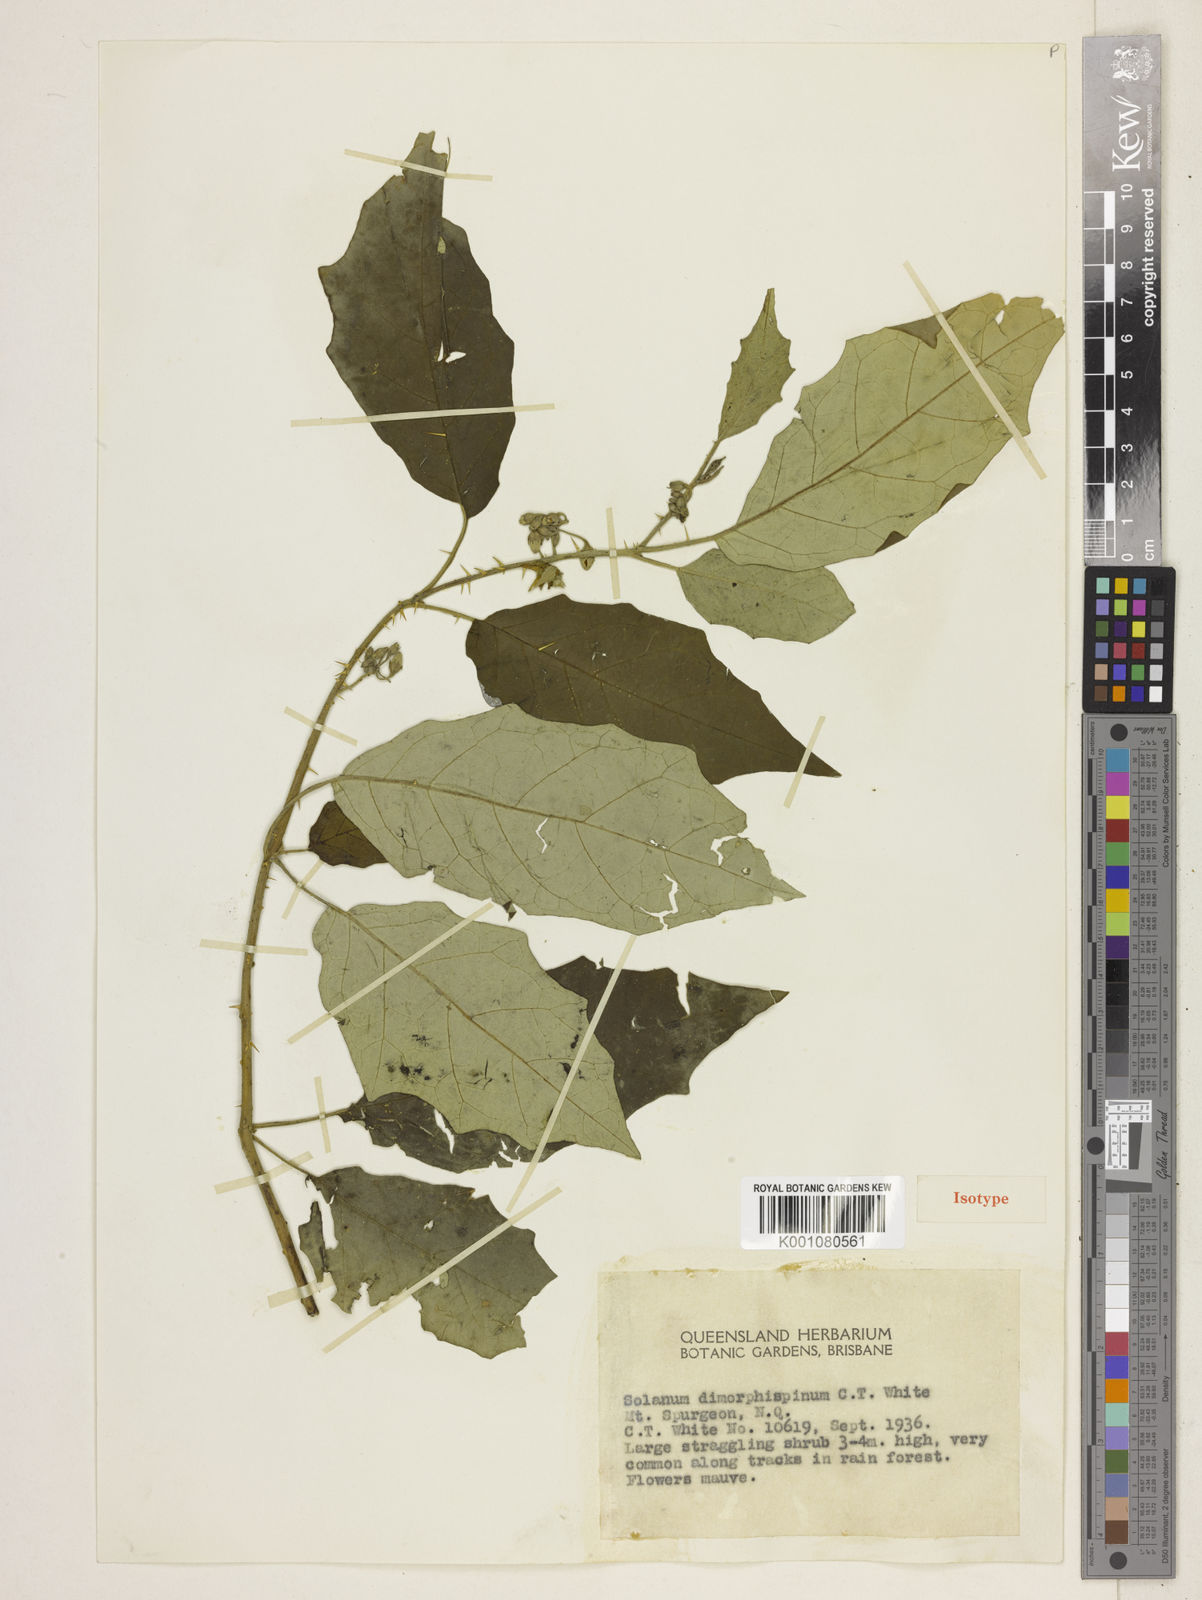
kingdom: Plantae
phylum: Tracheophyta
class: Magnoliopsida
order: Solanales
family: Solanaceae
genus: Solanum
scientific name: Solanum dimorphispinum
